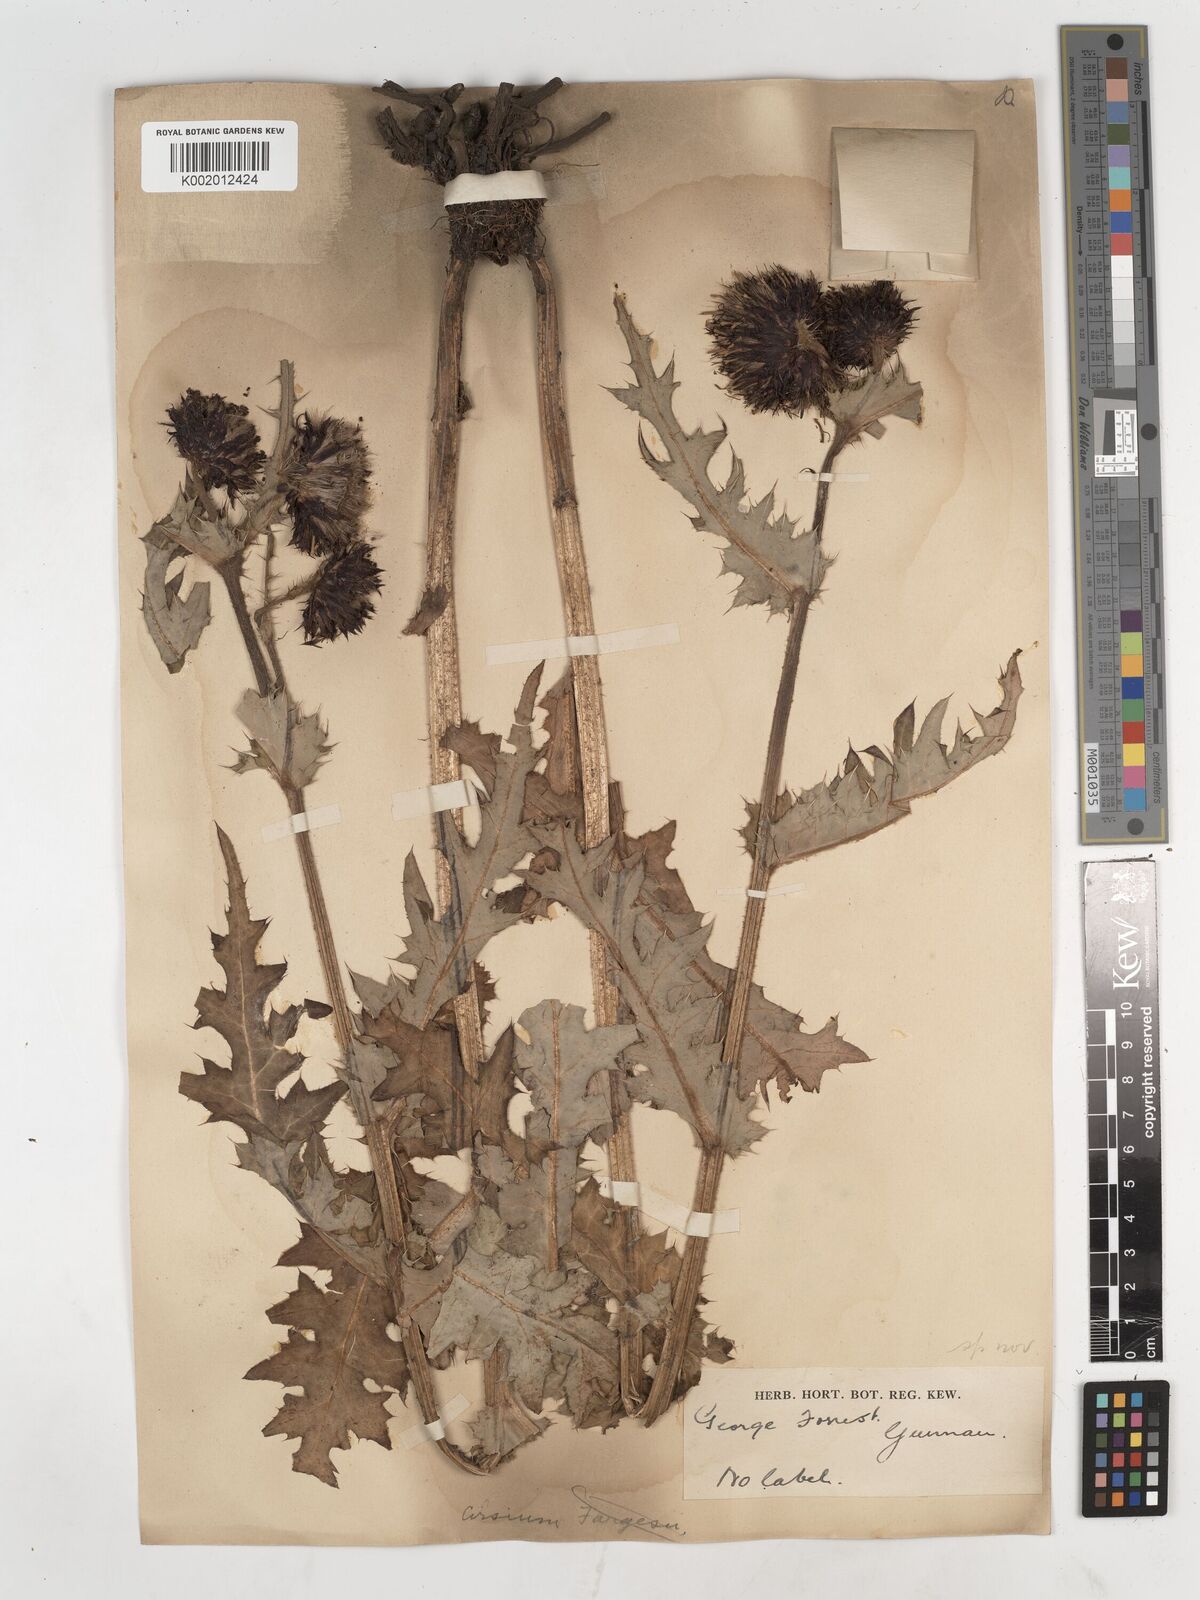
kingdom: Plantae
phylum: Tracheophyta
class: Magnoliopsida
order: Asterales
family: Asteraceae
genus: Cirsium
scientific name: Cirsium
